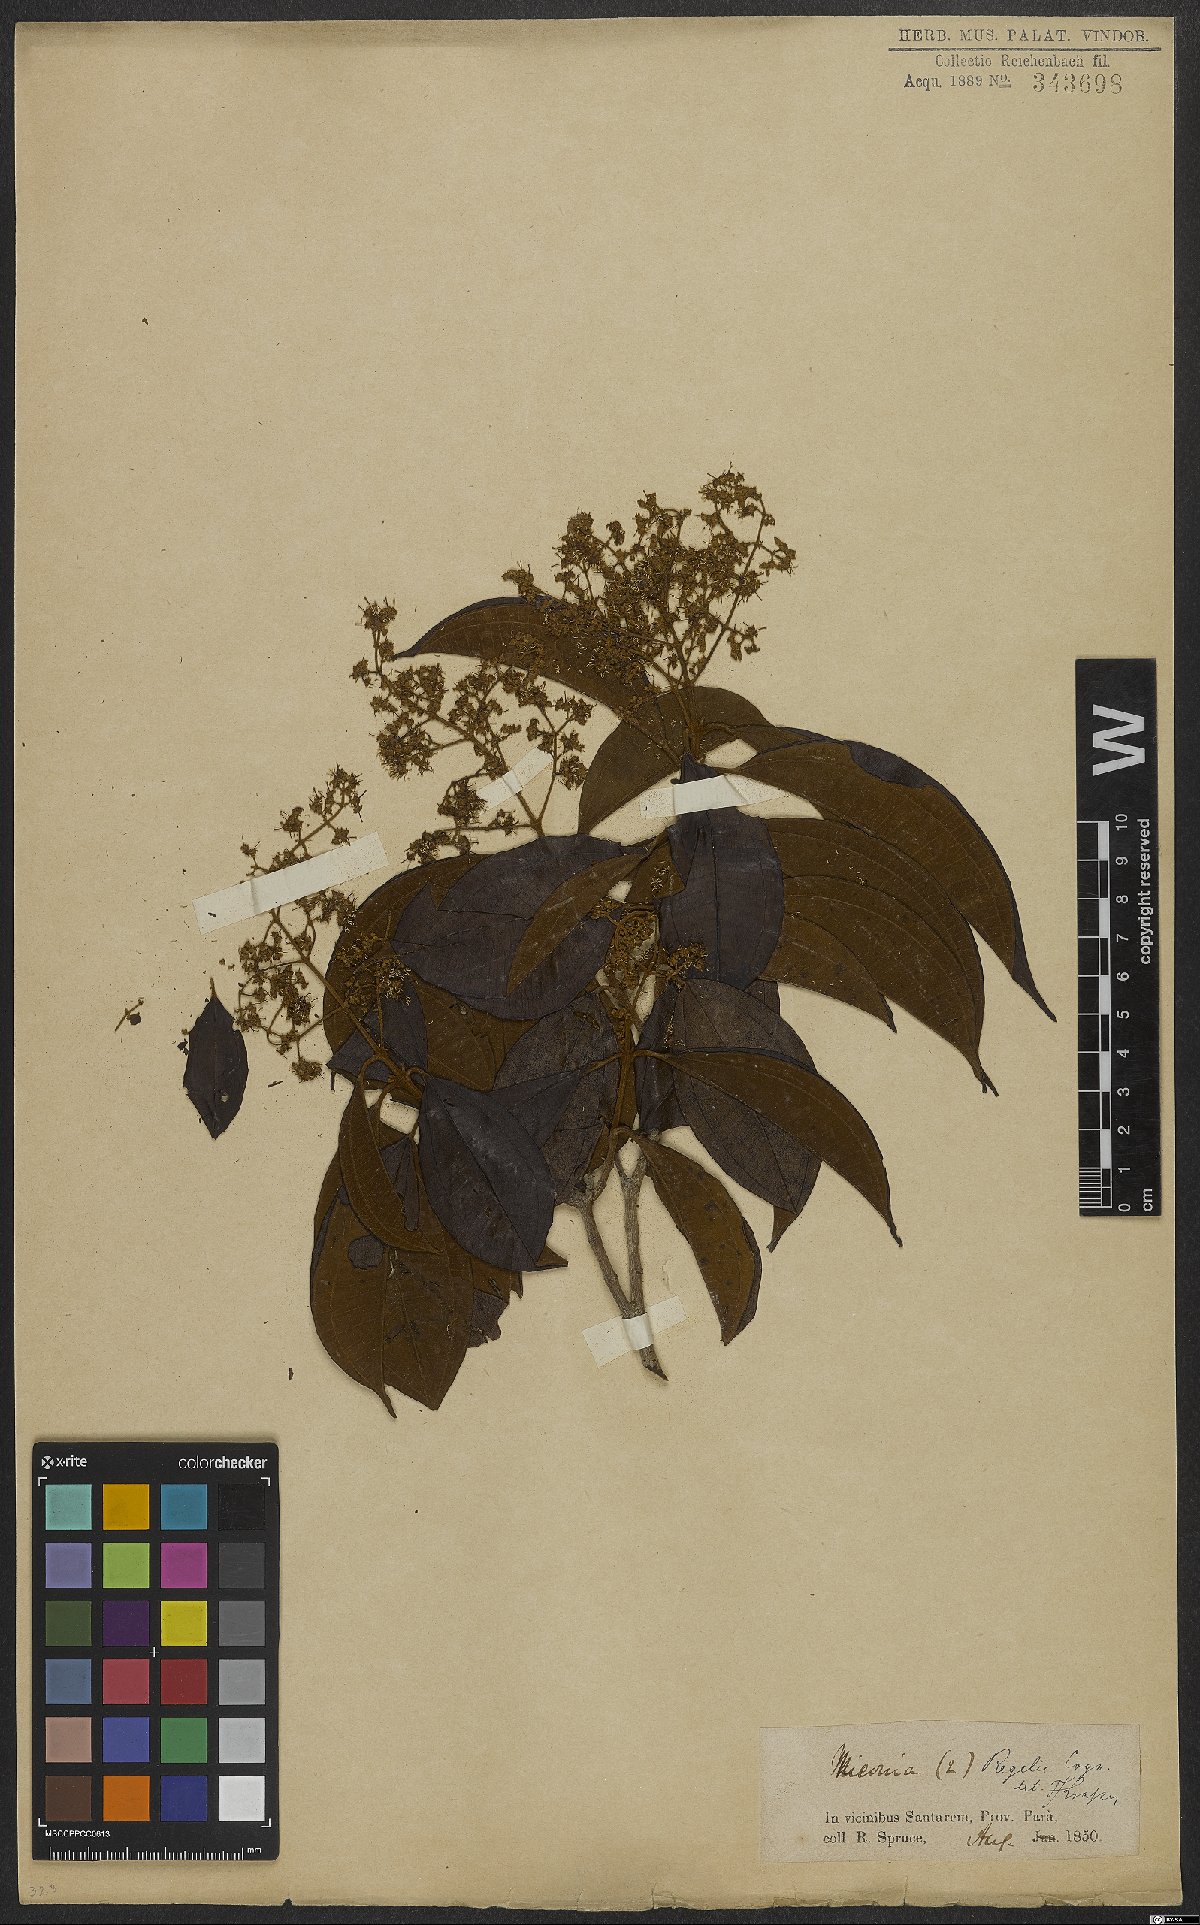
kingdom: Plantae
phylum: Tracheophyta
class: Magnoliopsida
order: Myrtales
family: Melastomataceae
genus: Miconia
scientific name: Miconia regelii
